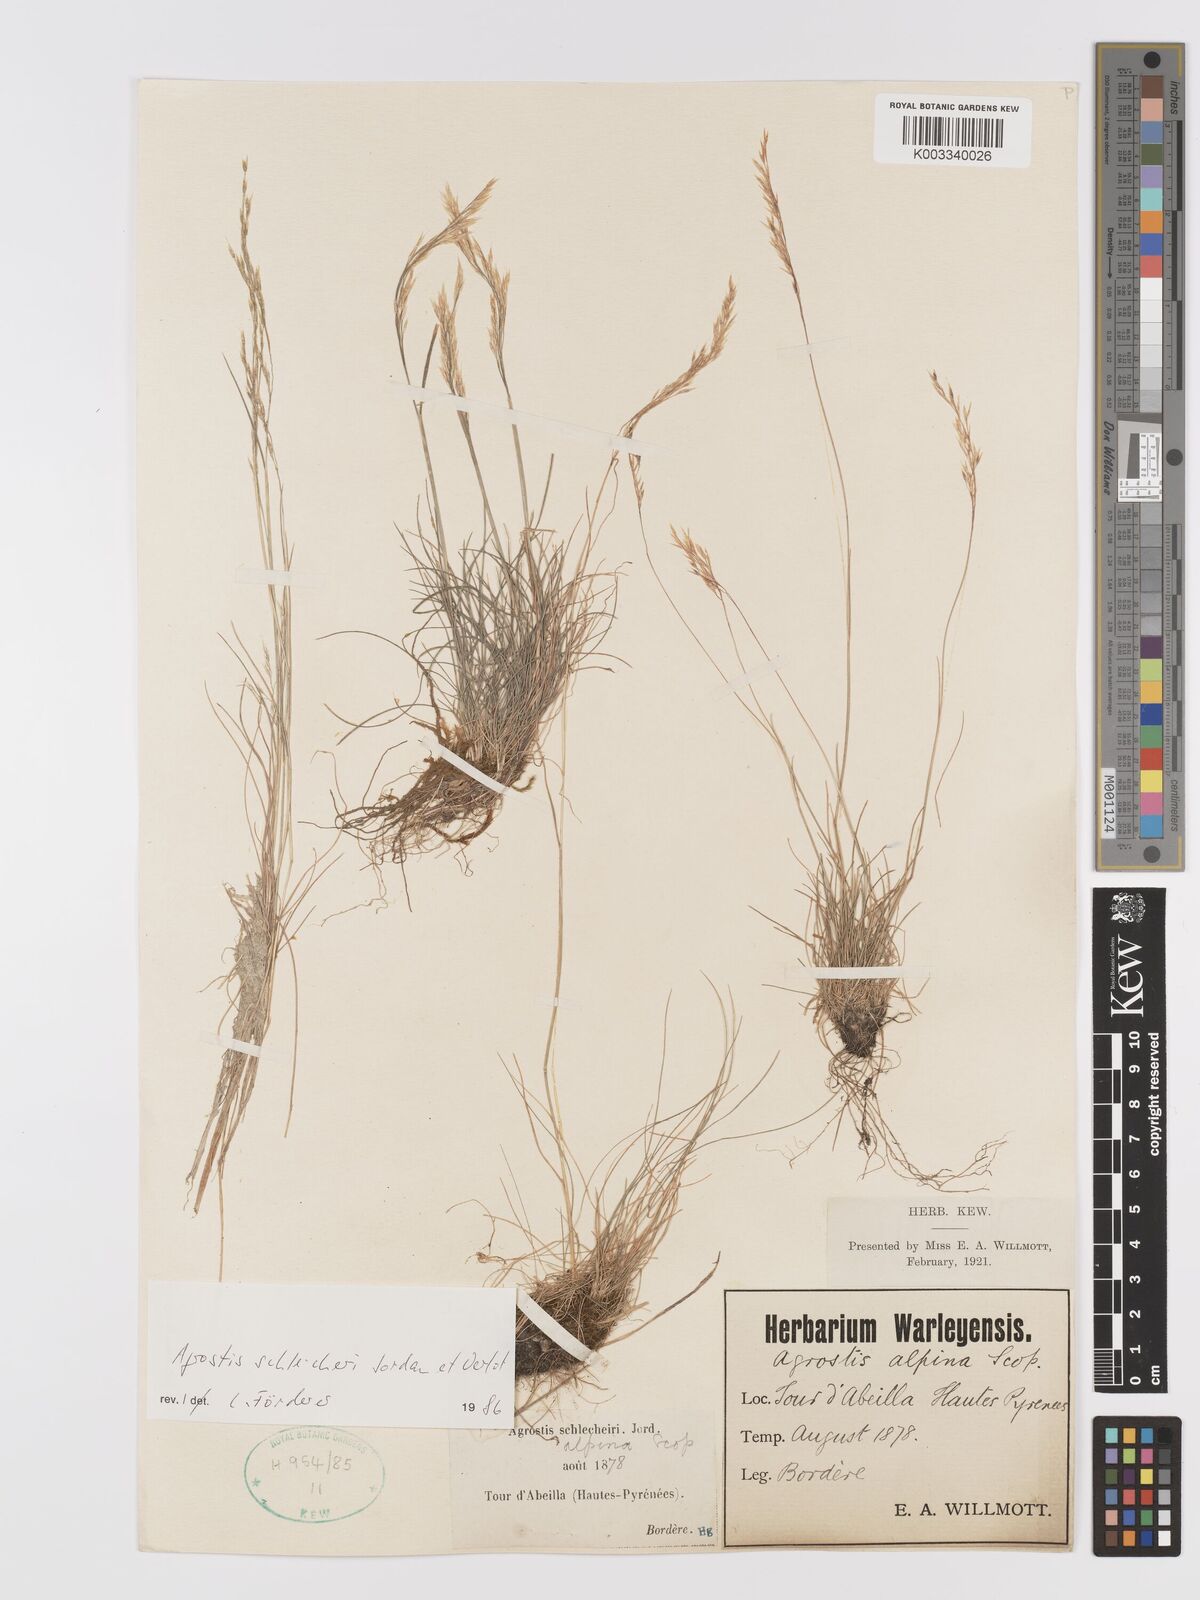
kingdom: Plantae
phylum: Tracheophyta
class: Liliopsida
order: Poales
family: Poaceae
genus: Alpagrostis
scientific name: Alpagrostis schleicheri
